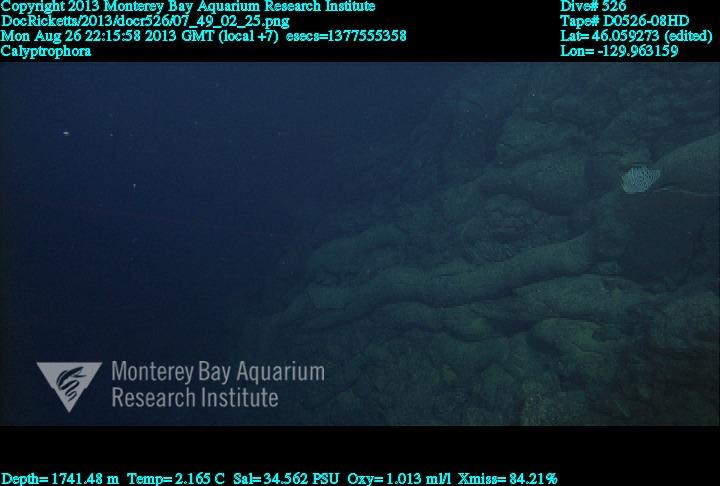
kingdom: Animalia
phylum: Cnidaria
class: Anthozoa
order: Scleralcyonacea
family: Primnoidae
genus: Calyptrophora
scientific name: Calyptrophora
